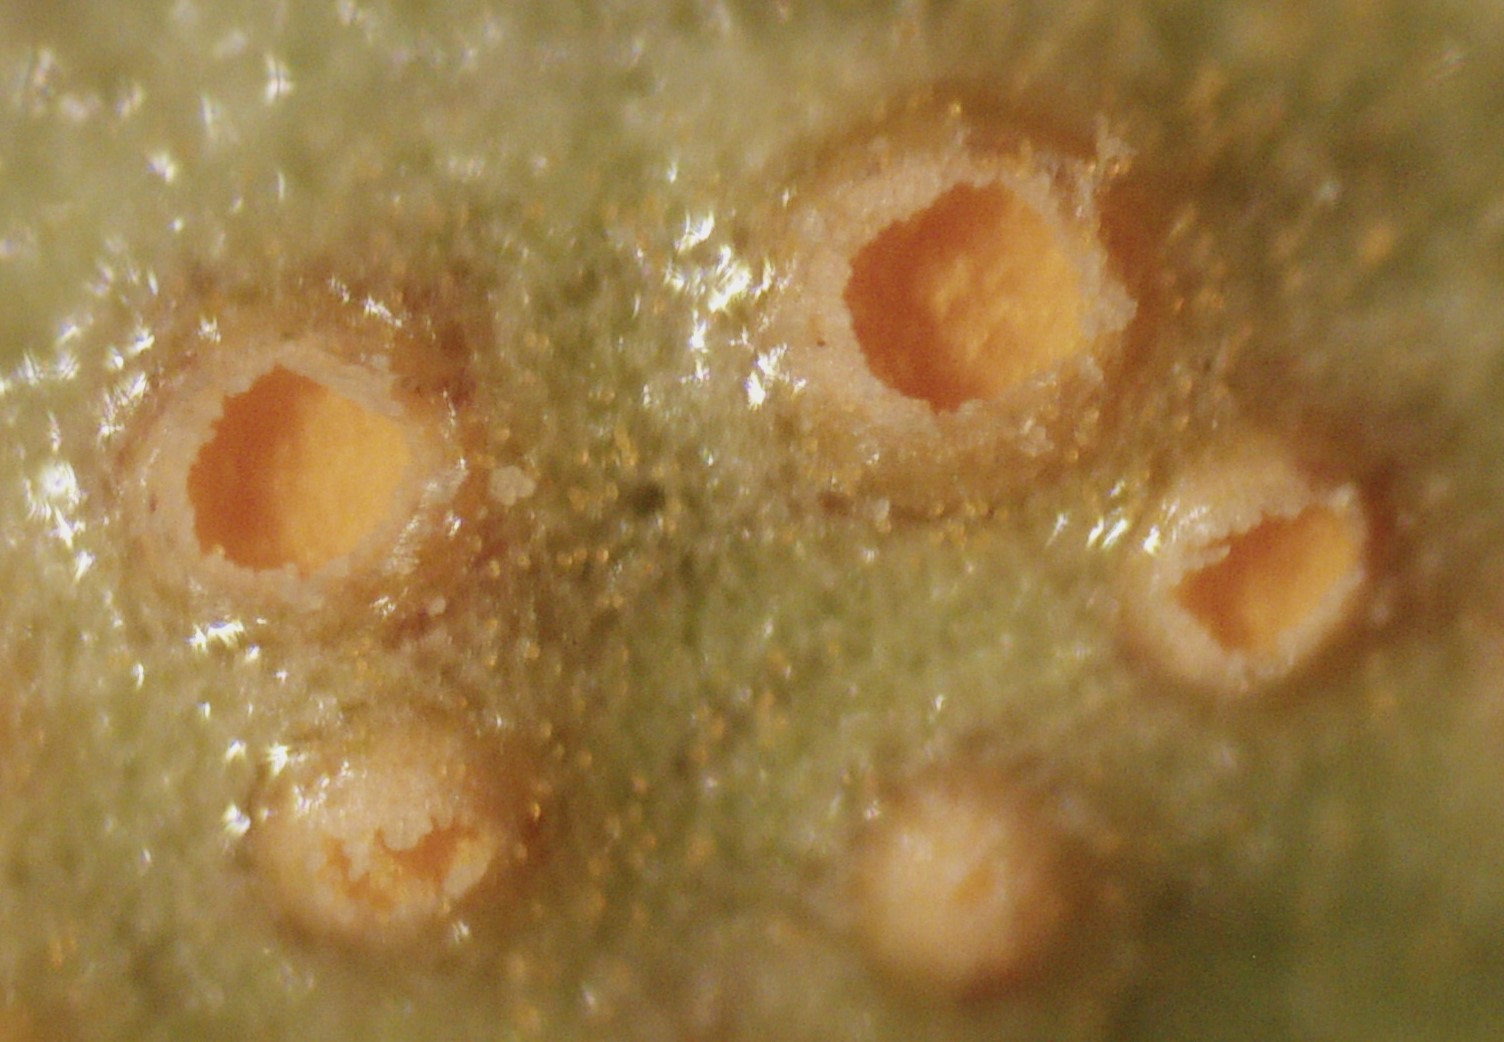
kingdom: Fungi
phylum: Basidiomycota
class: Pucciniomycetes
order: Pucciniales
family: Pucciniaceae
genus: Puccinia
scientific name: Puccinia violae
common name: viol-tvecellerust
